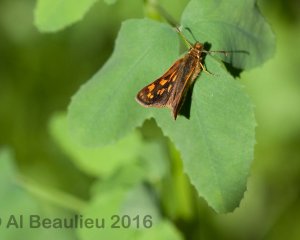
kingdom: Animalia
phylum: Arthropoda
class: Insecta
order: Lepidoptera
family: Hesperiidae
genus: Carterocephalus
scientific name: Carterocephalus palaemon
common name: Chequered Skipper
